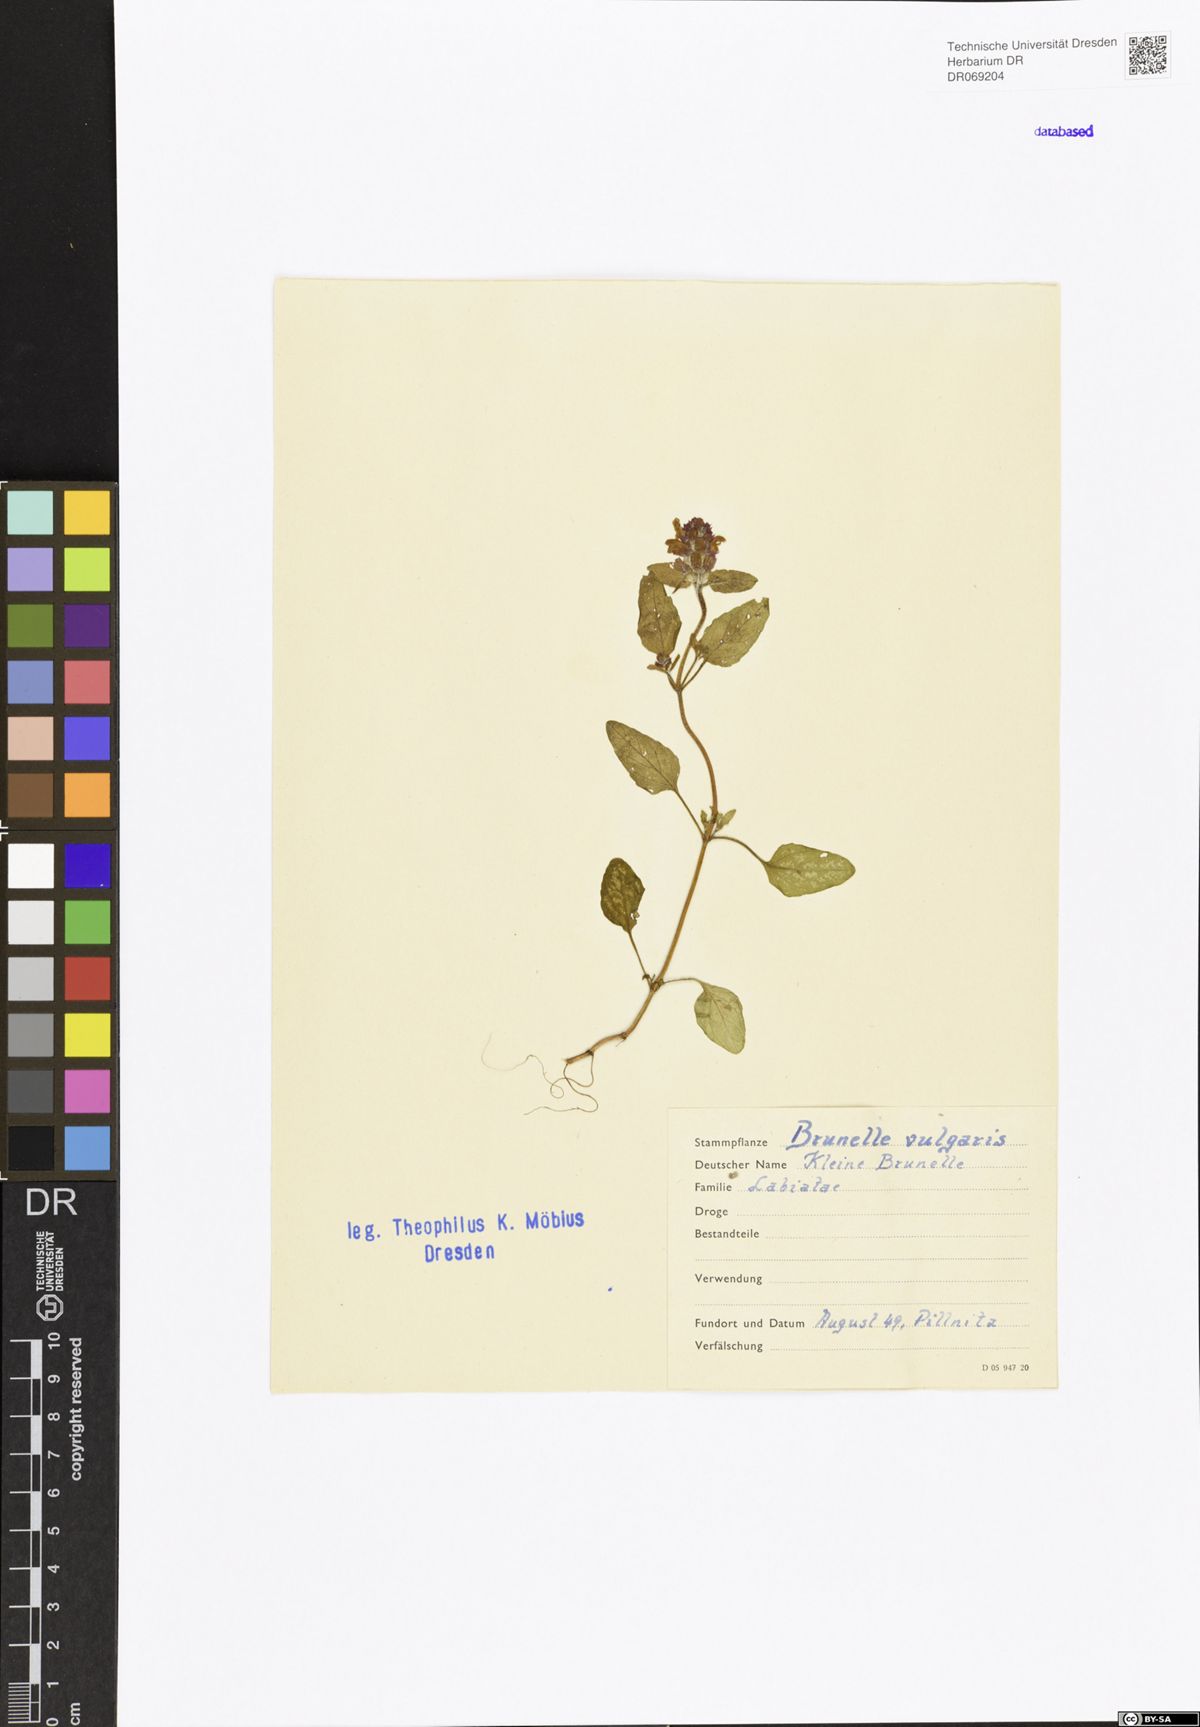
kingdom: Plantae
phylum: Tracheophyta
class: Magnoliopsida
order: Lamiales
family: Lamiaceae
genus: Prunella
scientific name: Prunella vulgaris
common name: Heal-all
